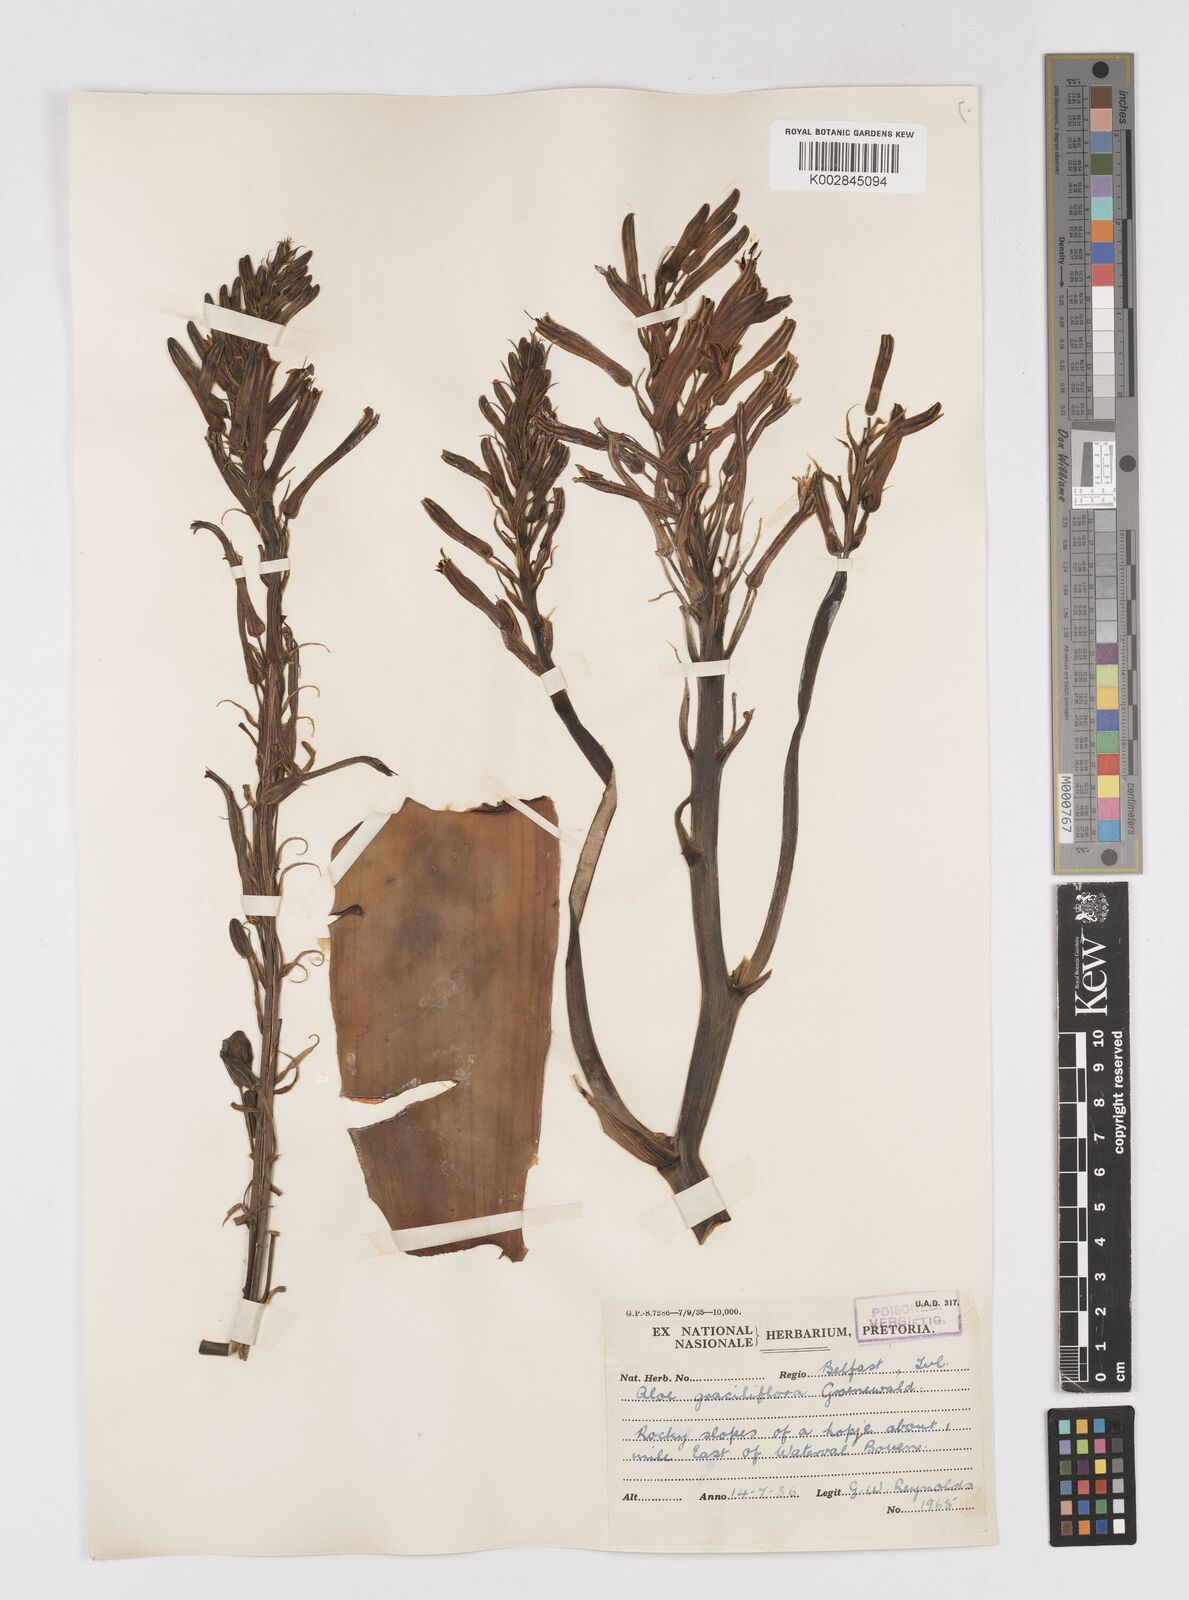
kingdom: Plantae
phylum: Tracheophyta
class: Liliopsida
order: Asparagales
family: Asphodelaceae
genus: Aloe
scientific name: Aloe graciliflora
